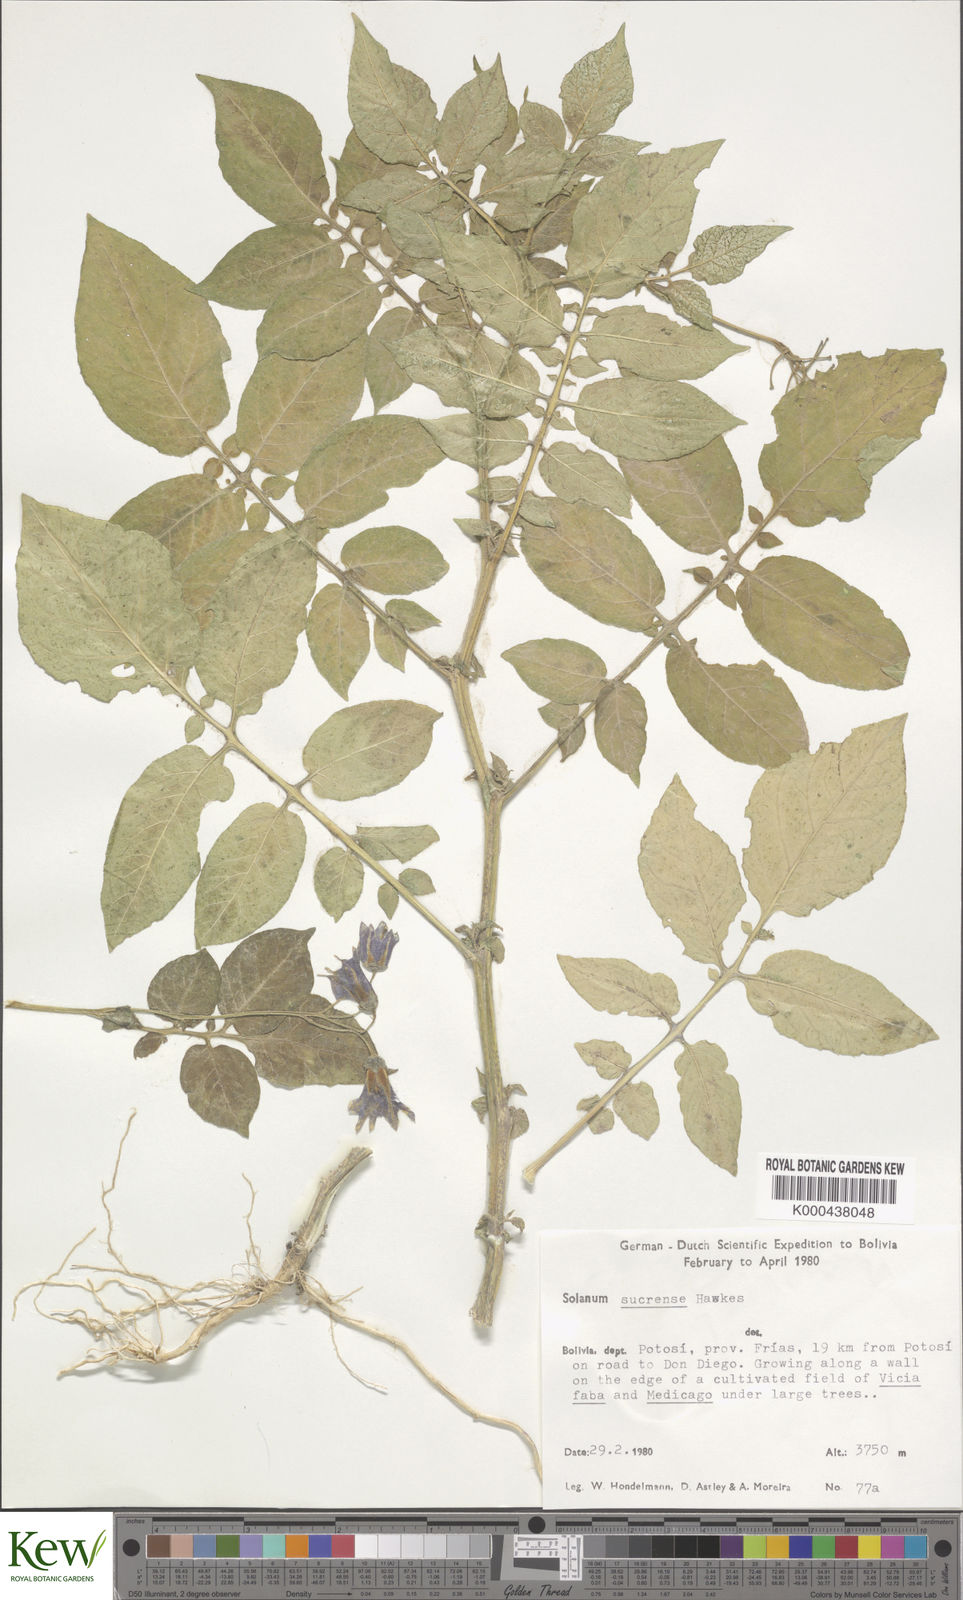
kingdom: Plantae
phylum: Tracheophyta
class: Magnoliopsida
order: Solanales
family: Solanaceae
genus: Solanum
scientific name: Solanum brevicaule
